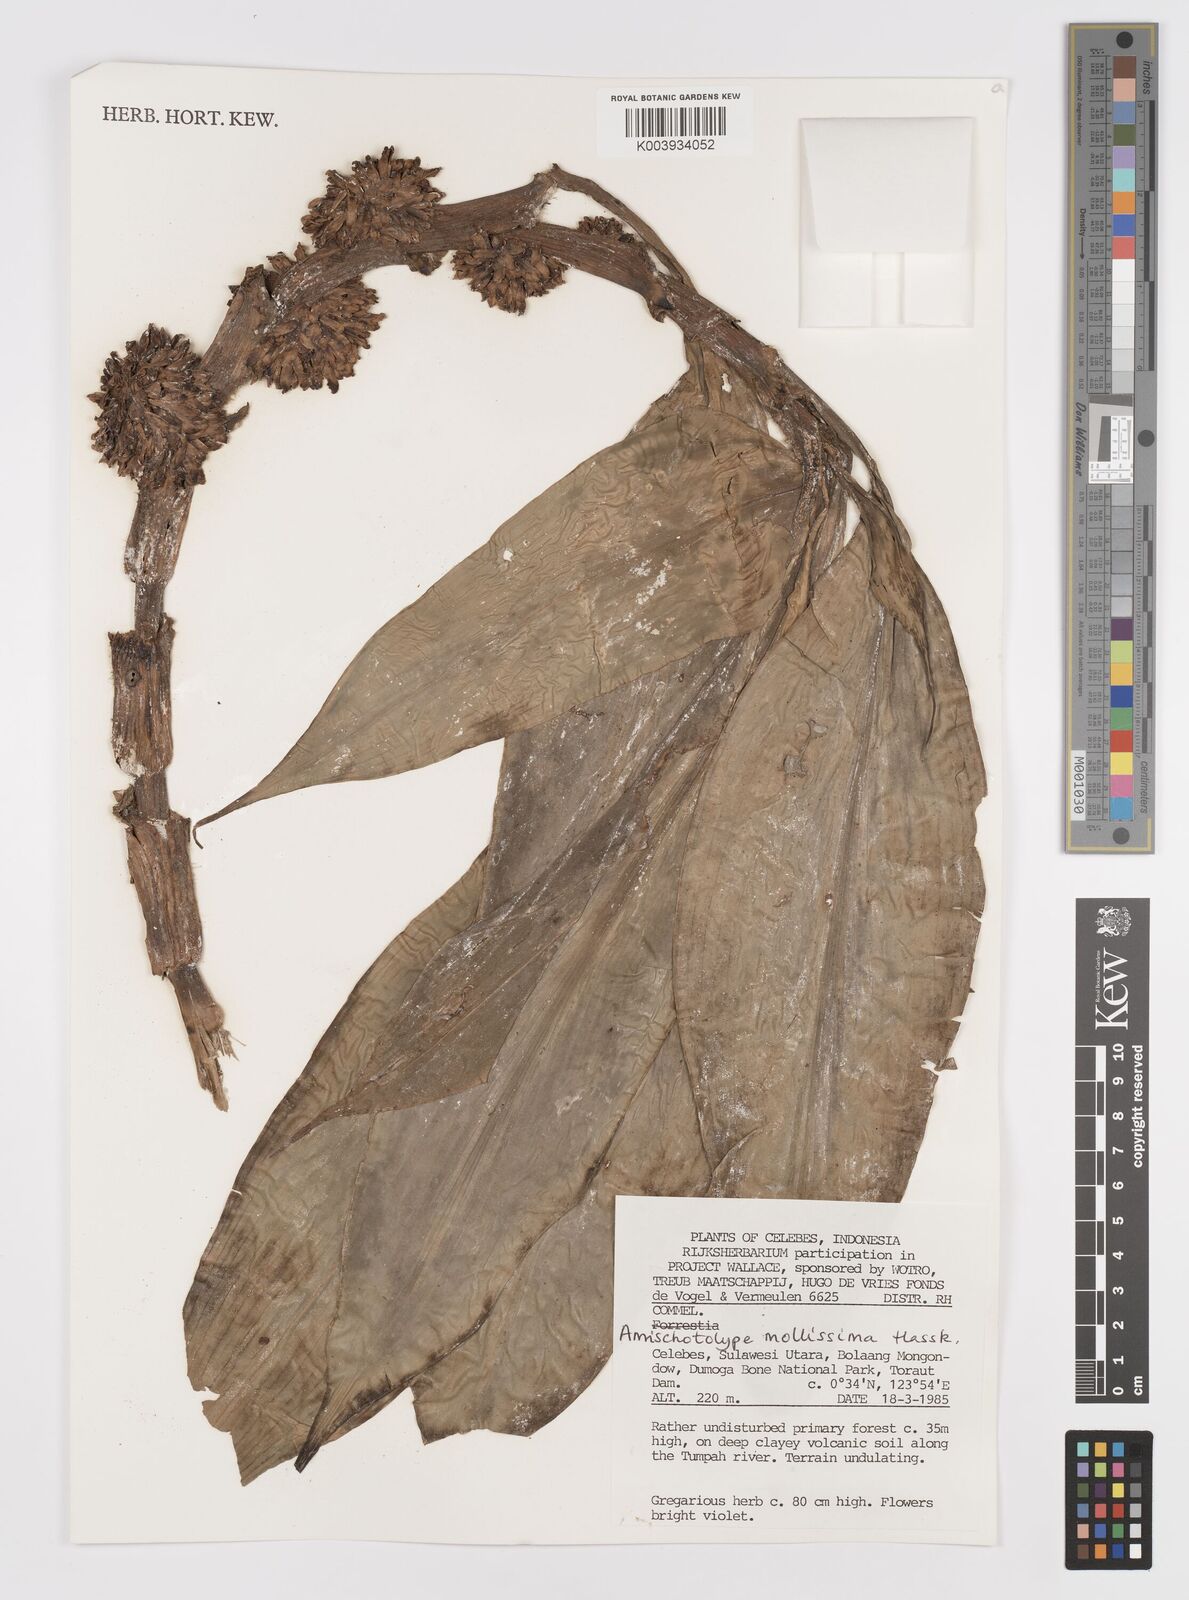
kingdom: Plantae
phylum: Tracheophyta
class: Liliopsida
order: Commelinales
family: Commelinaceae
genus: Amischotolype
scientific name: Amischotolype mollissima
